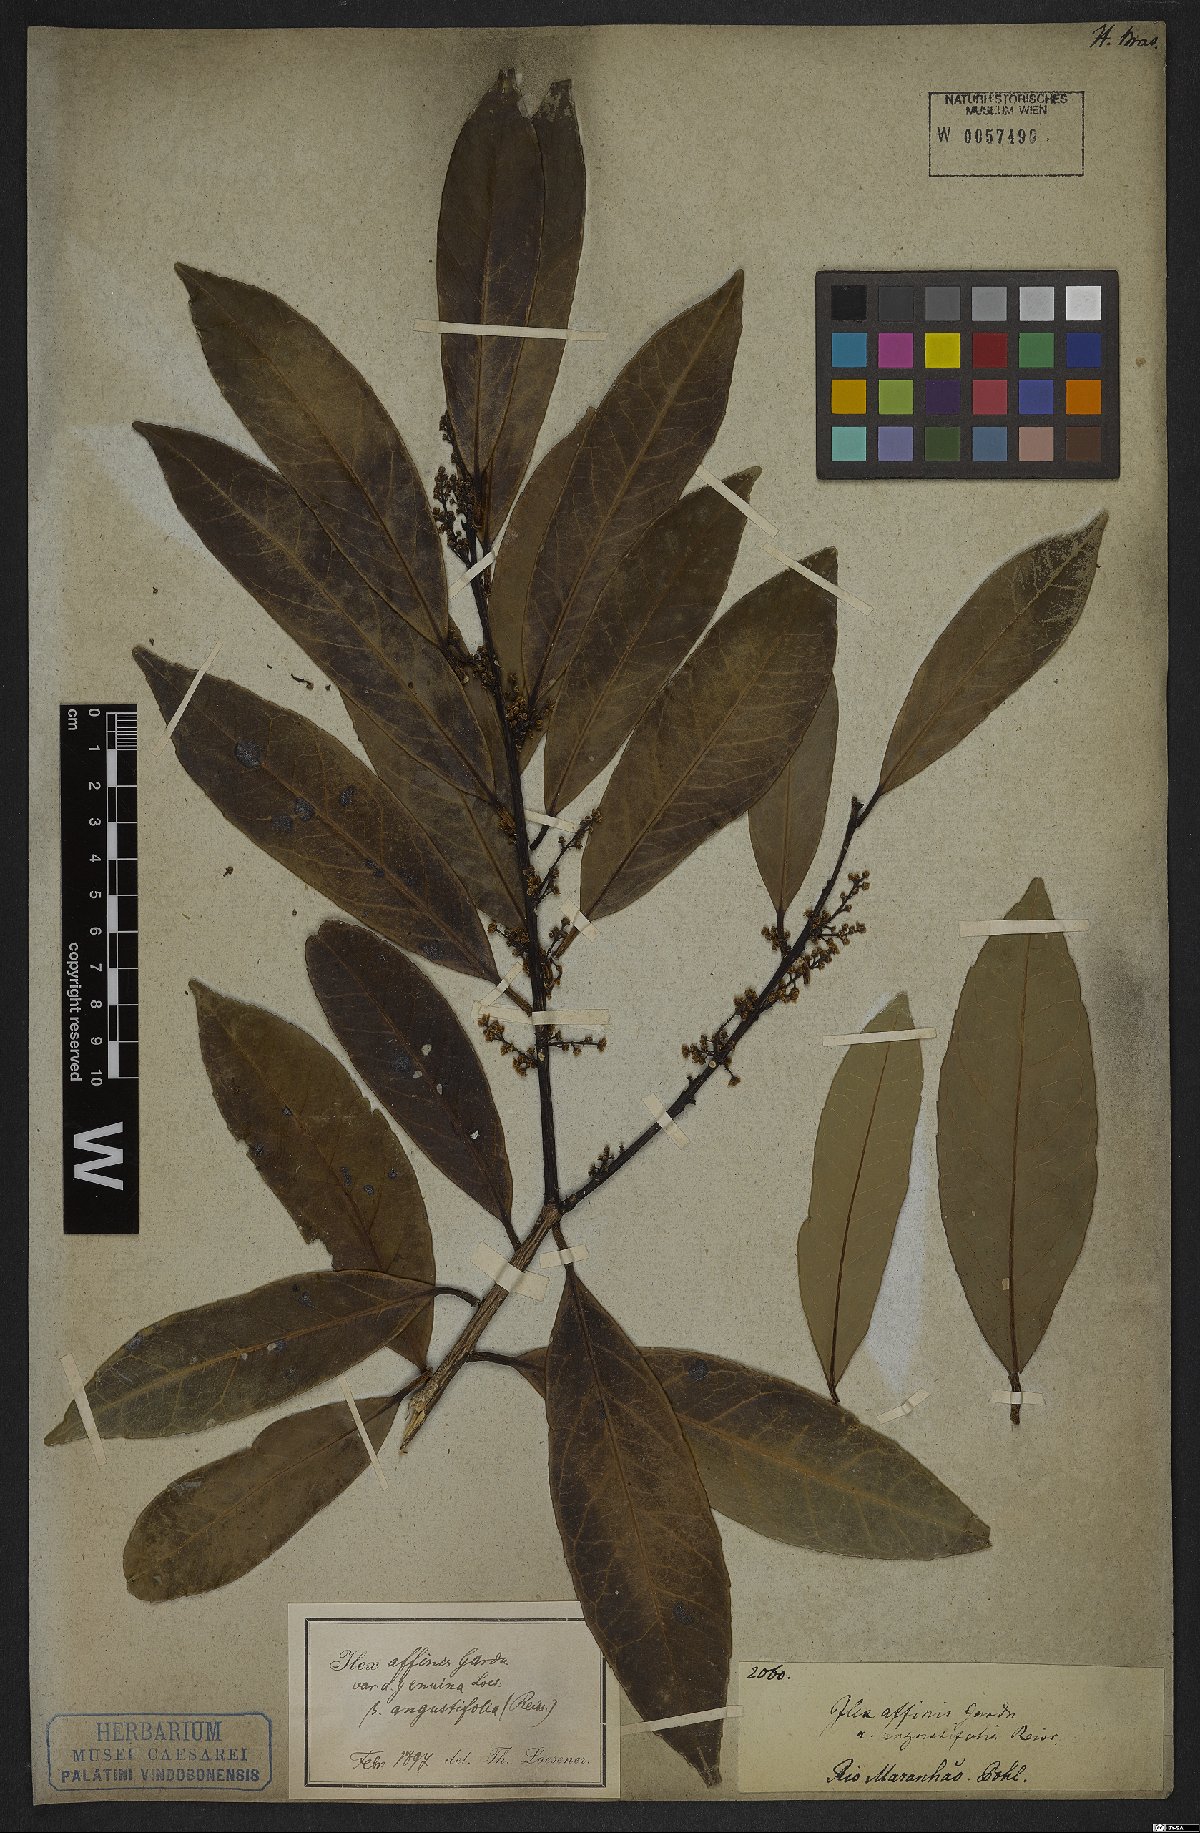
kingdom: Plantae
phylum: Tracheophyta
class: Magnoliopsida
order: Aquifoliales
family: Aquifoliaceae
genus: Ilex
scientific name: Ilex affinis
